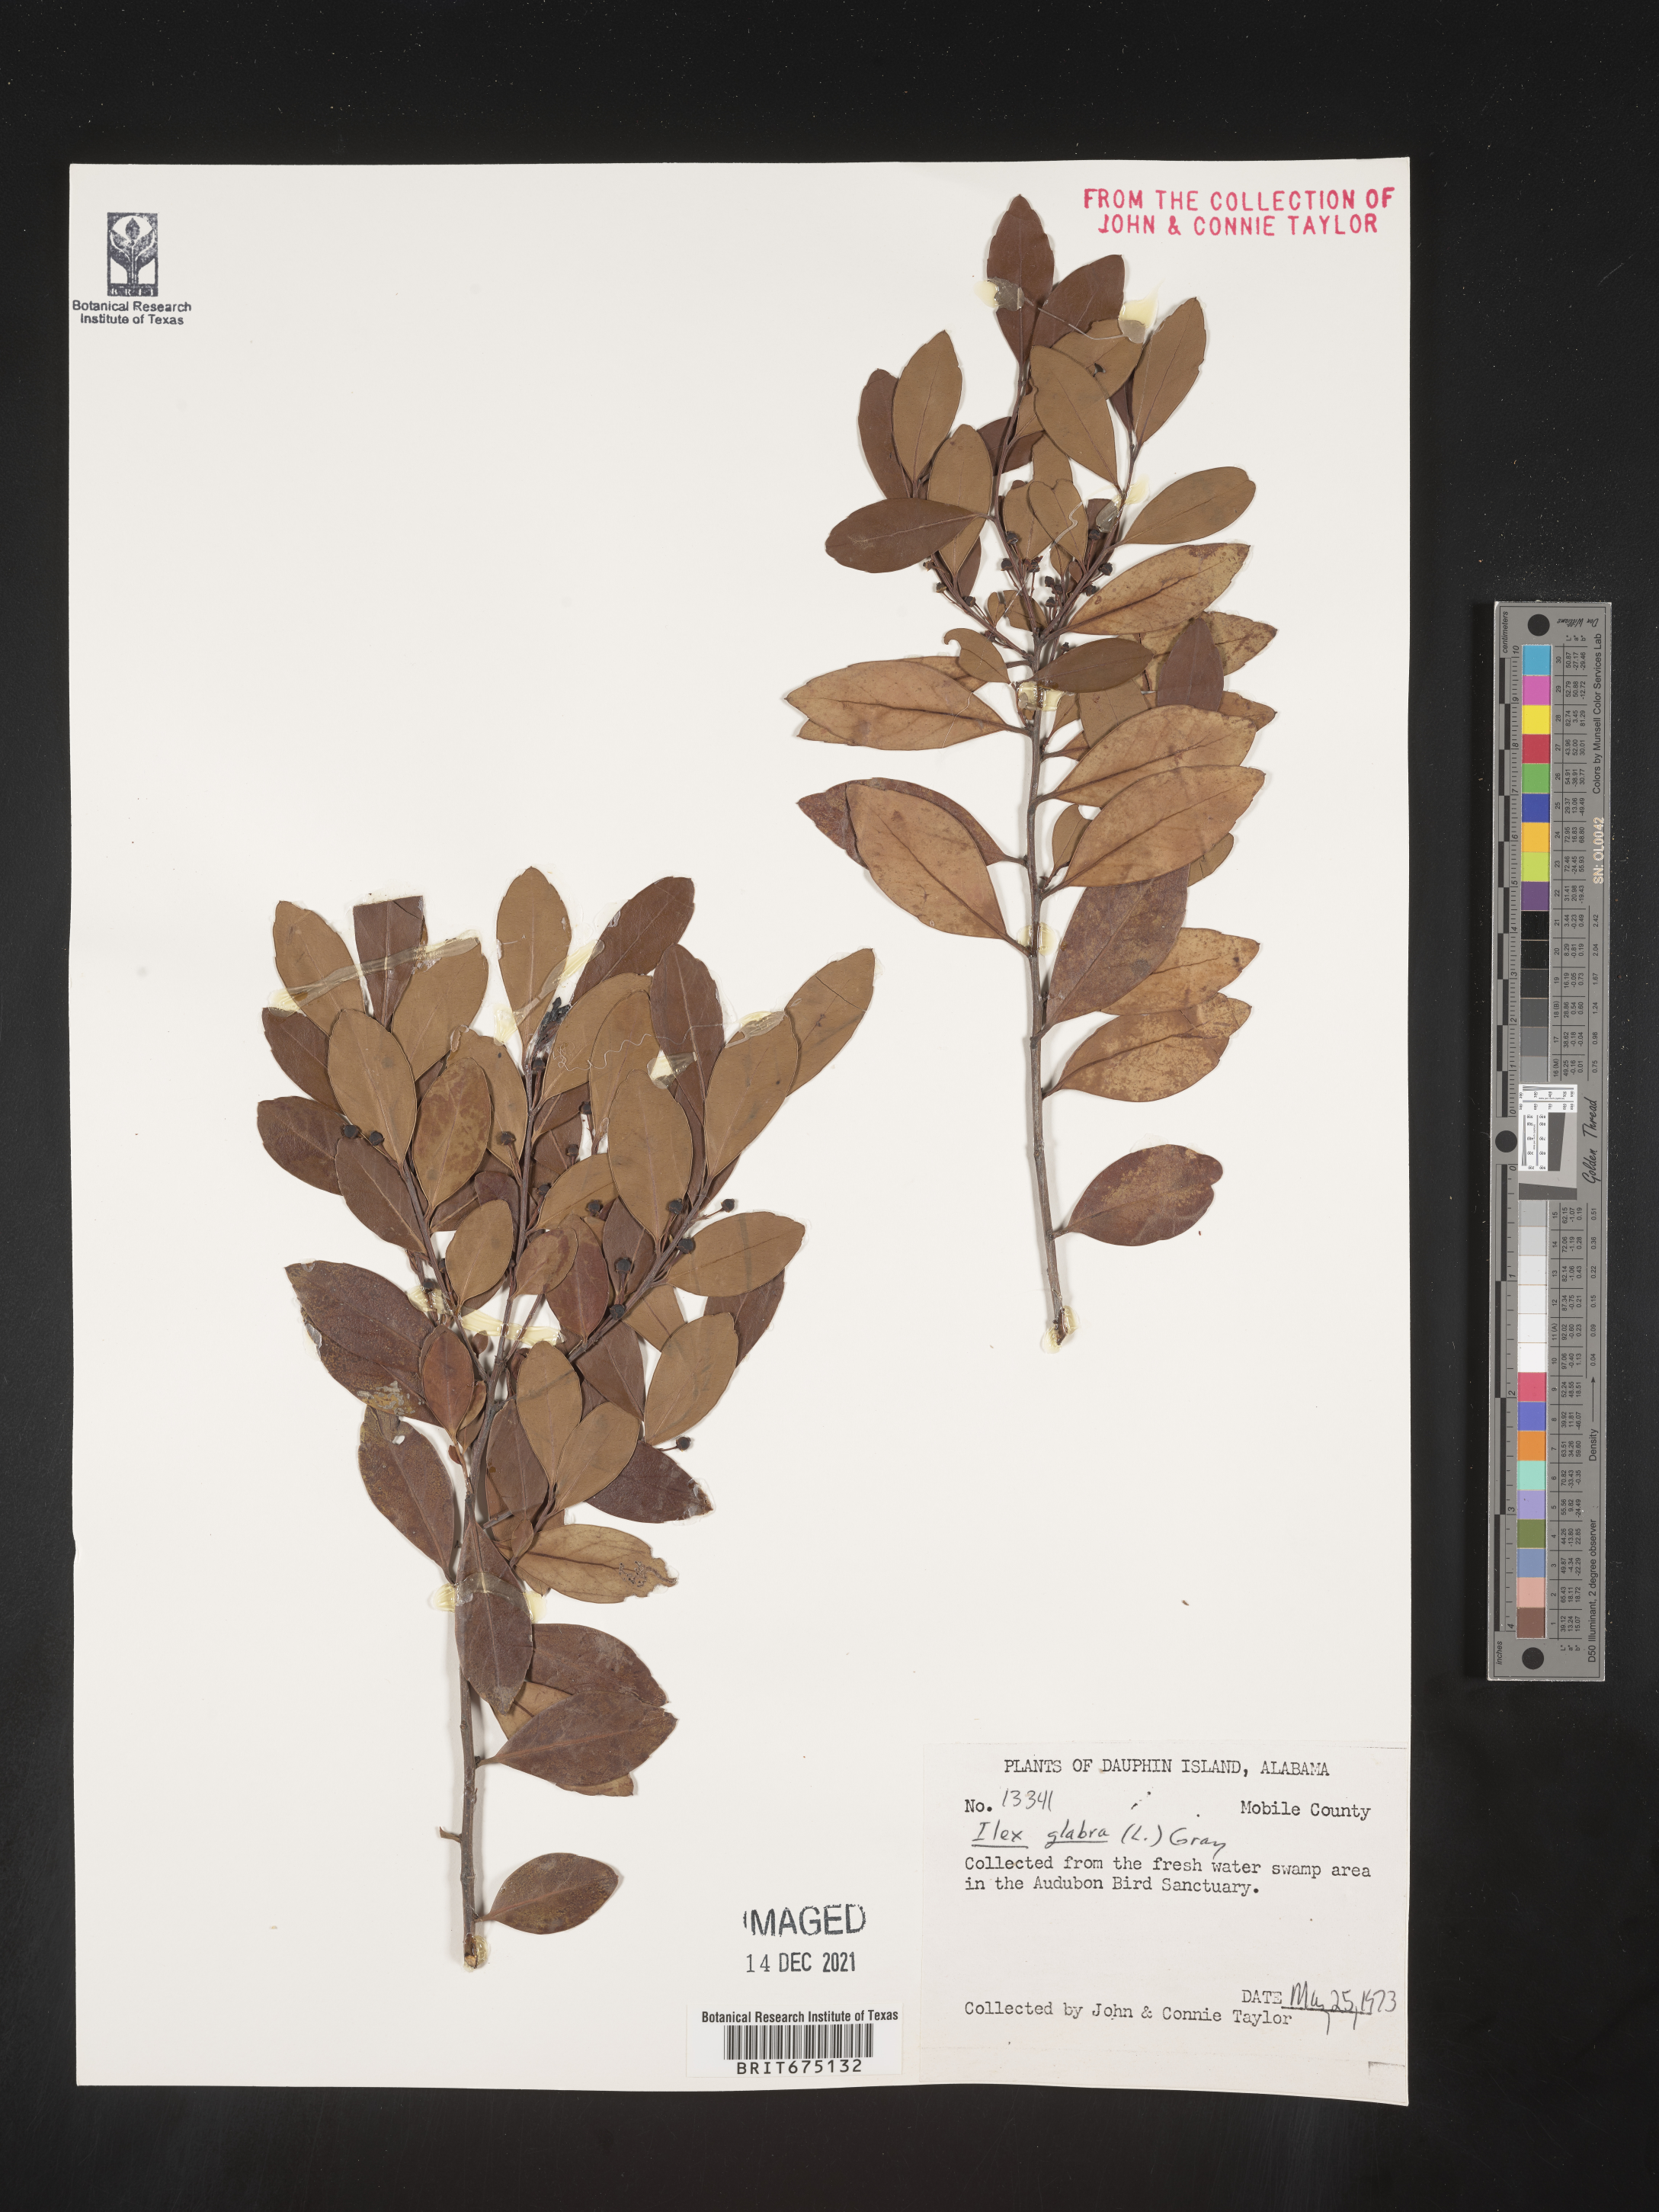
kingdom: Plantae
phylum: Tracheophyta
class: Magnoliopsida
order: Aquifoliales
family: Aquifoliaceae
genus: Ilex
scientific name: Ilex glabra
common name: Bitter gallberry
